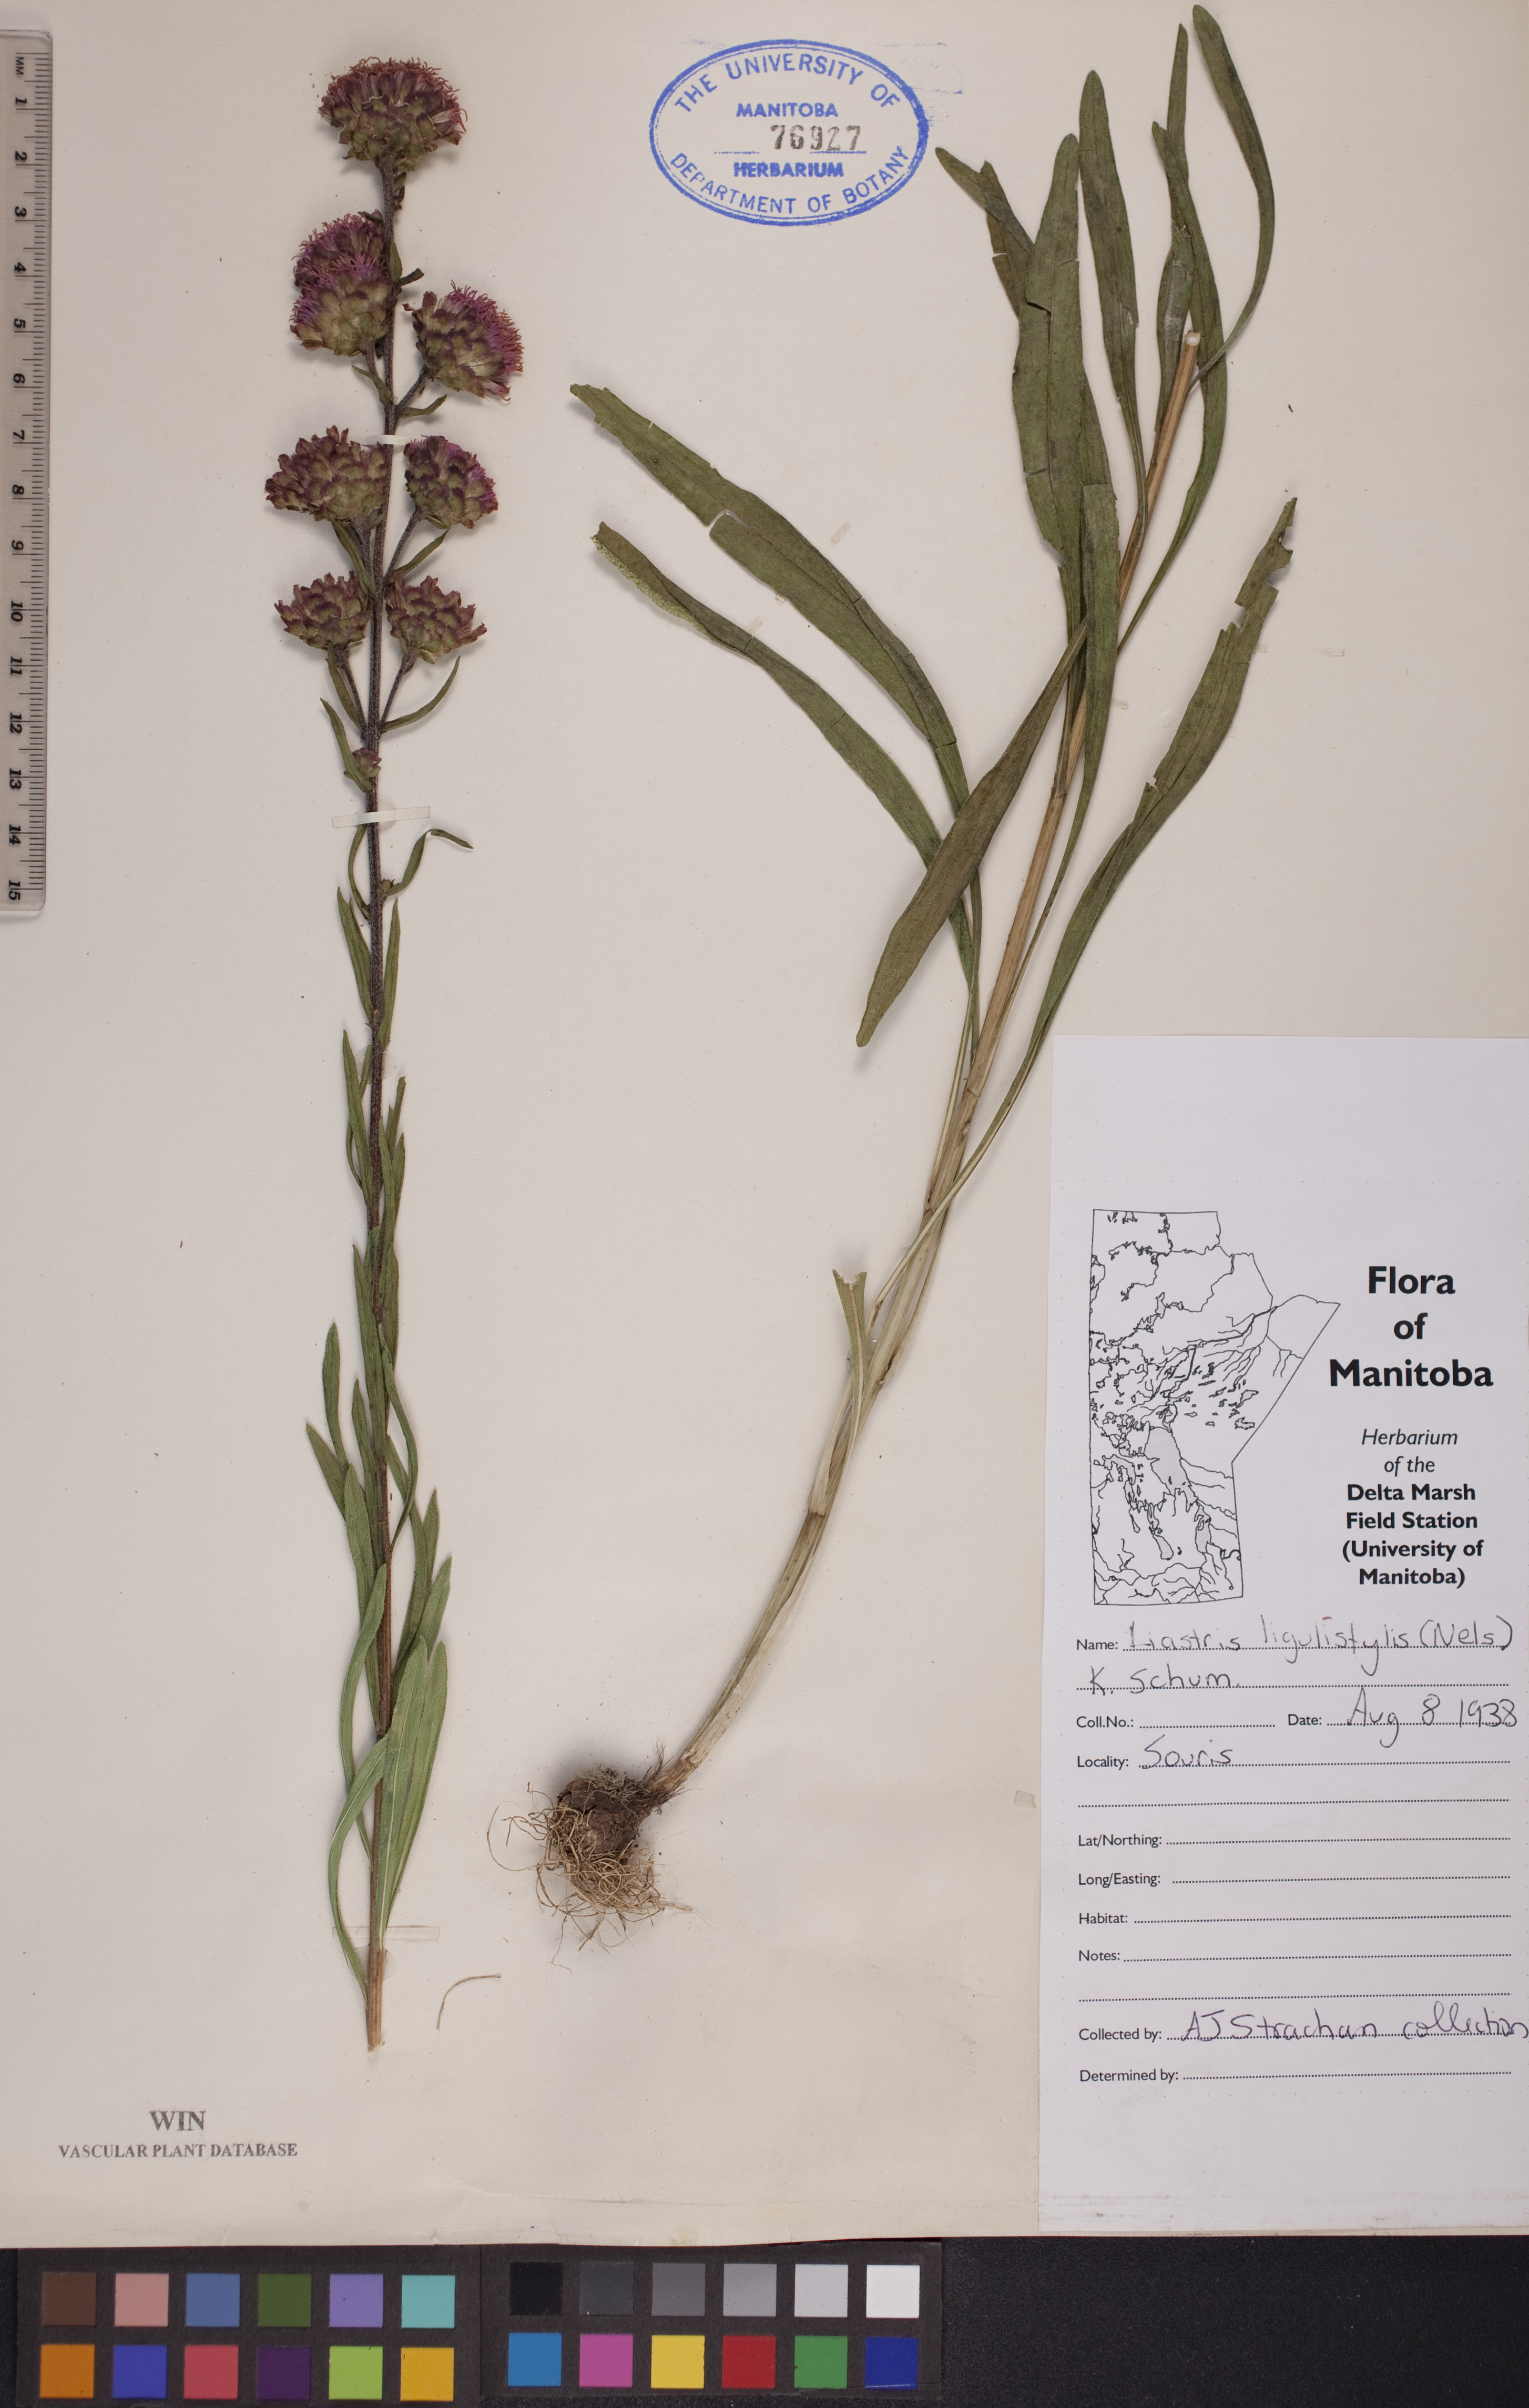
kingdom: Plantae
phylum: Tracheophyta
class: Magnoliopsida
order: Asterales
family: Asteraceae
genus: Liatris
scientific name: Liatris ligulistylis
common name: Northern plains gayfeather
